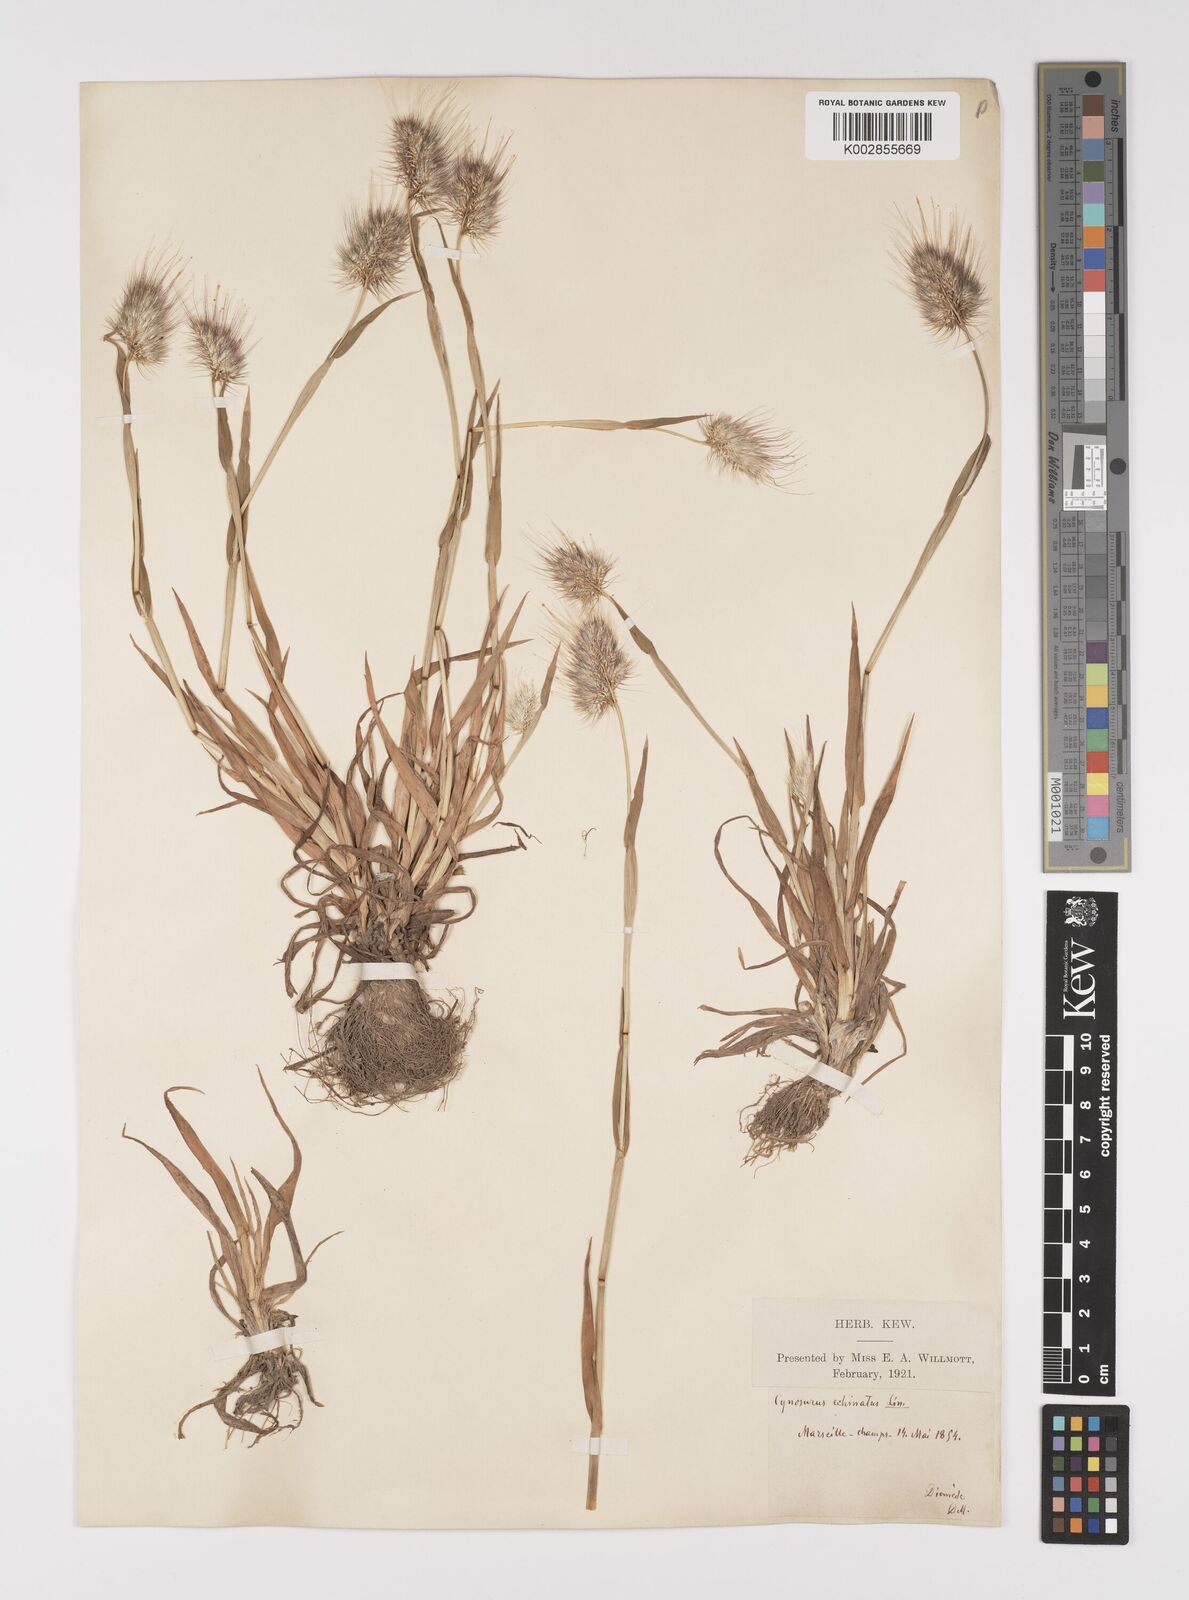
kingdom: Plantae
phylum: Tracheophyta
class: Liliopsida
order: Poales
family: Poaceae
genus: Cynosurus
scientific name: Cynosurus echinatus
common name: Rough dog's-tail
